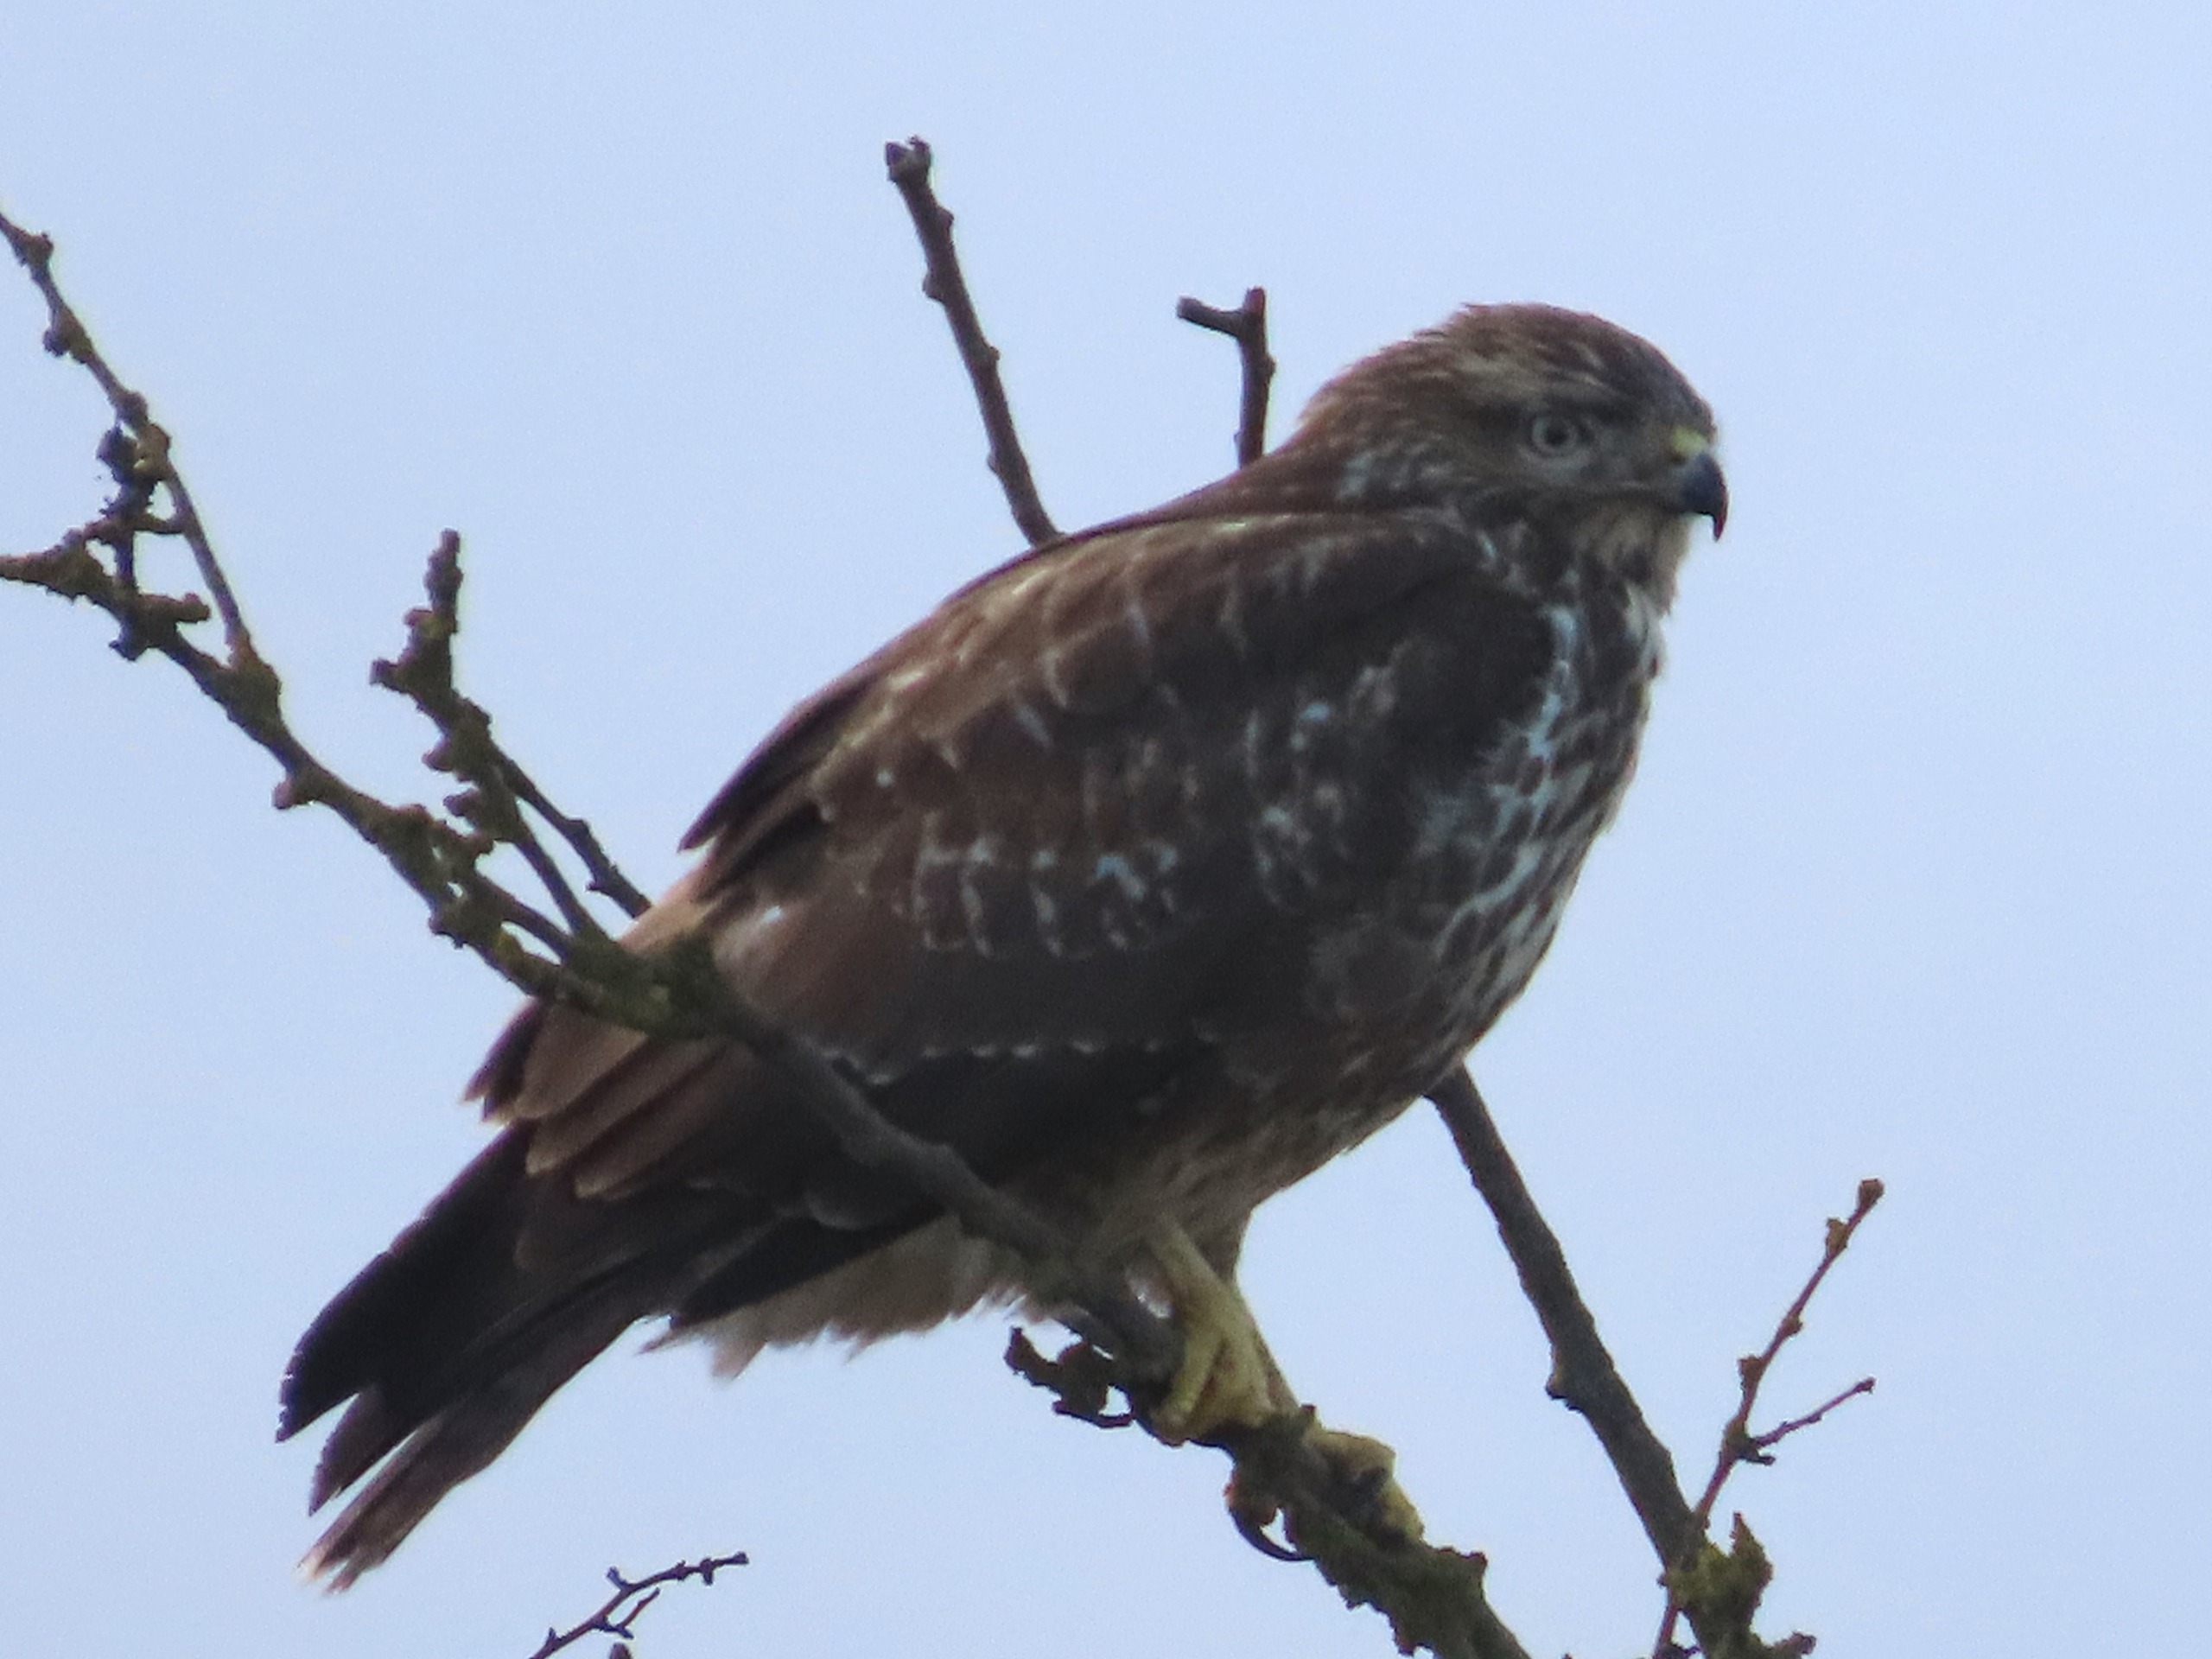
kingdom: Animalia
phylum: Chordata
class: Aves
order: Accipitriformes
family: Accipitridae
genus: Buteo
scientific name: Buteo buteo
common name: Musvåge
